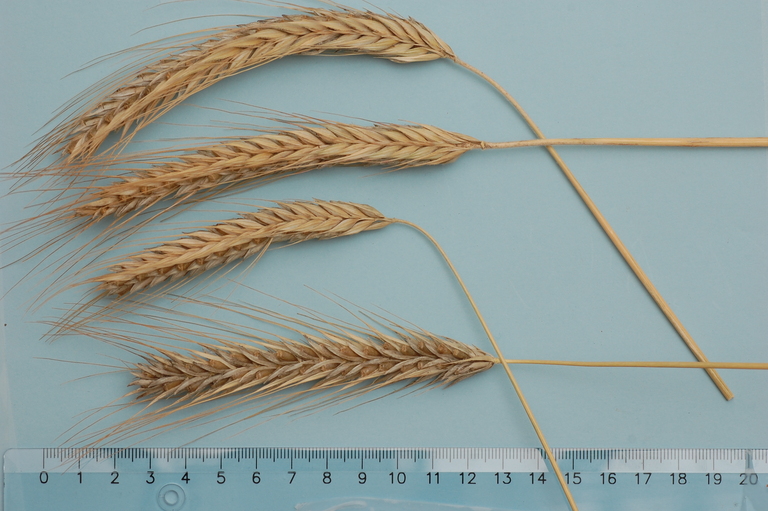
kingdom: Plantae
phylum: Tracheophyta
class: Liliopsida
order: Poales
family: Poaceae
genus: Secale
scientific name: Secale cereale
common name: Rye
